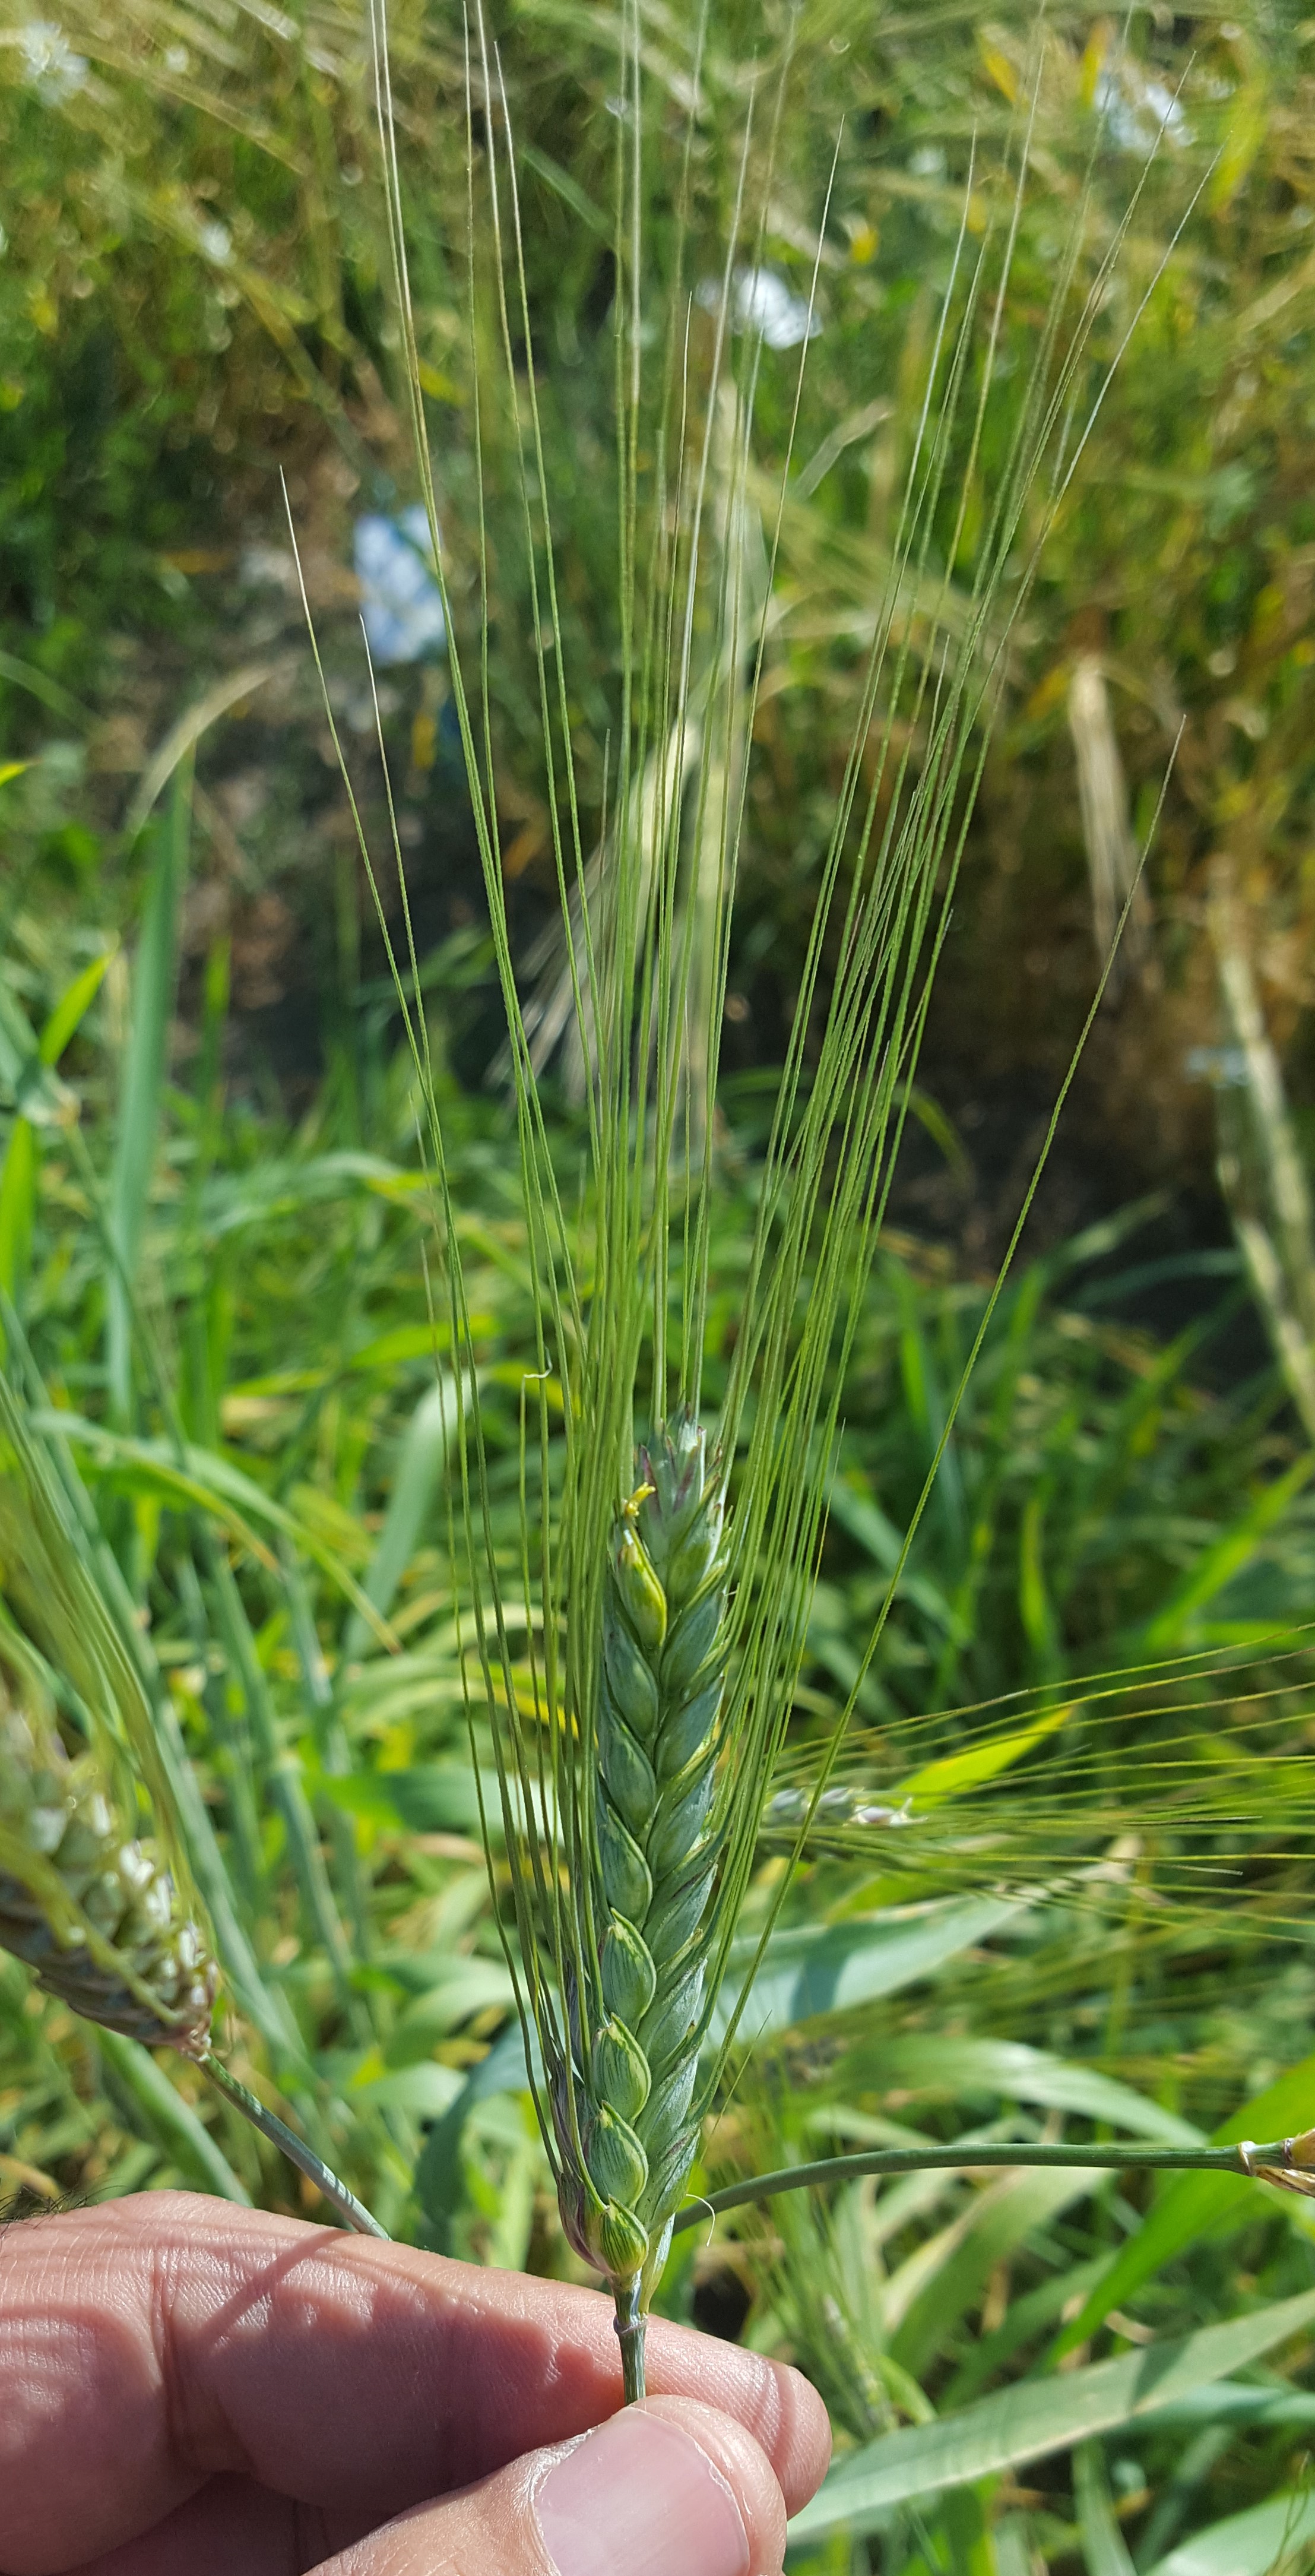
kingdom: Plantae
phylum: Tracheophyta
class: Liliopsida
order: Poales
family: Poaceae
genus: Triticum
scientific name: Triticum turgidum
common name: Rivet wheat
